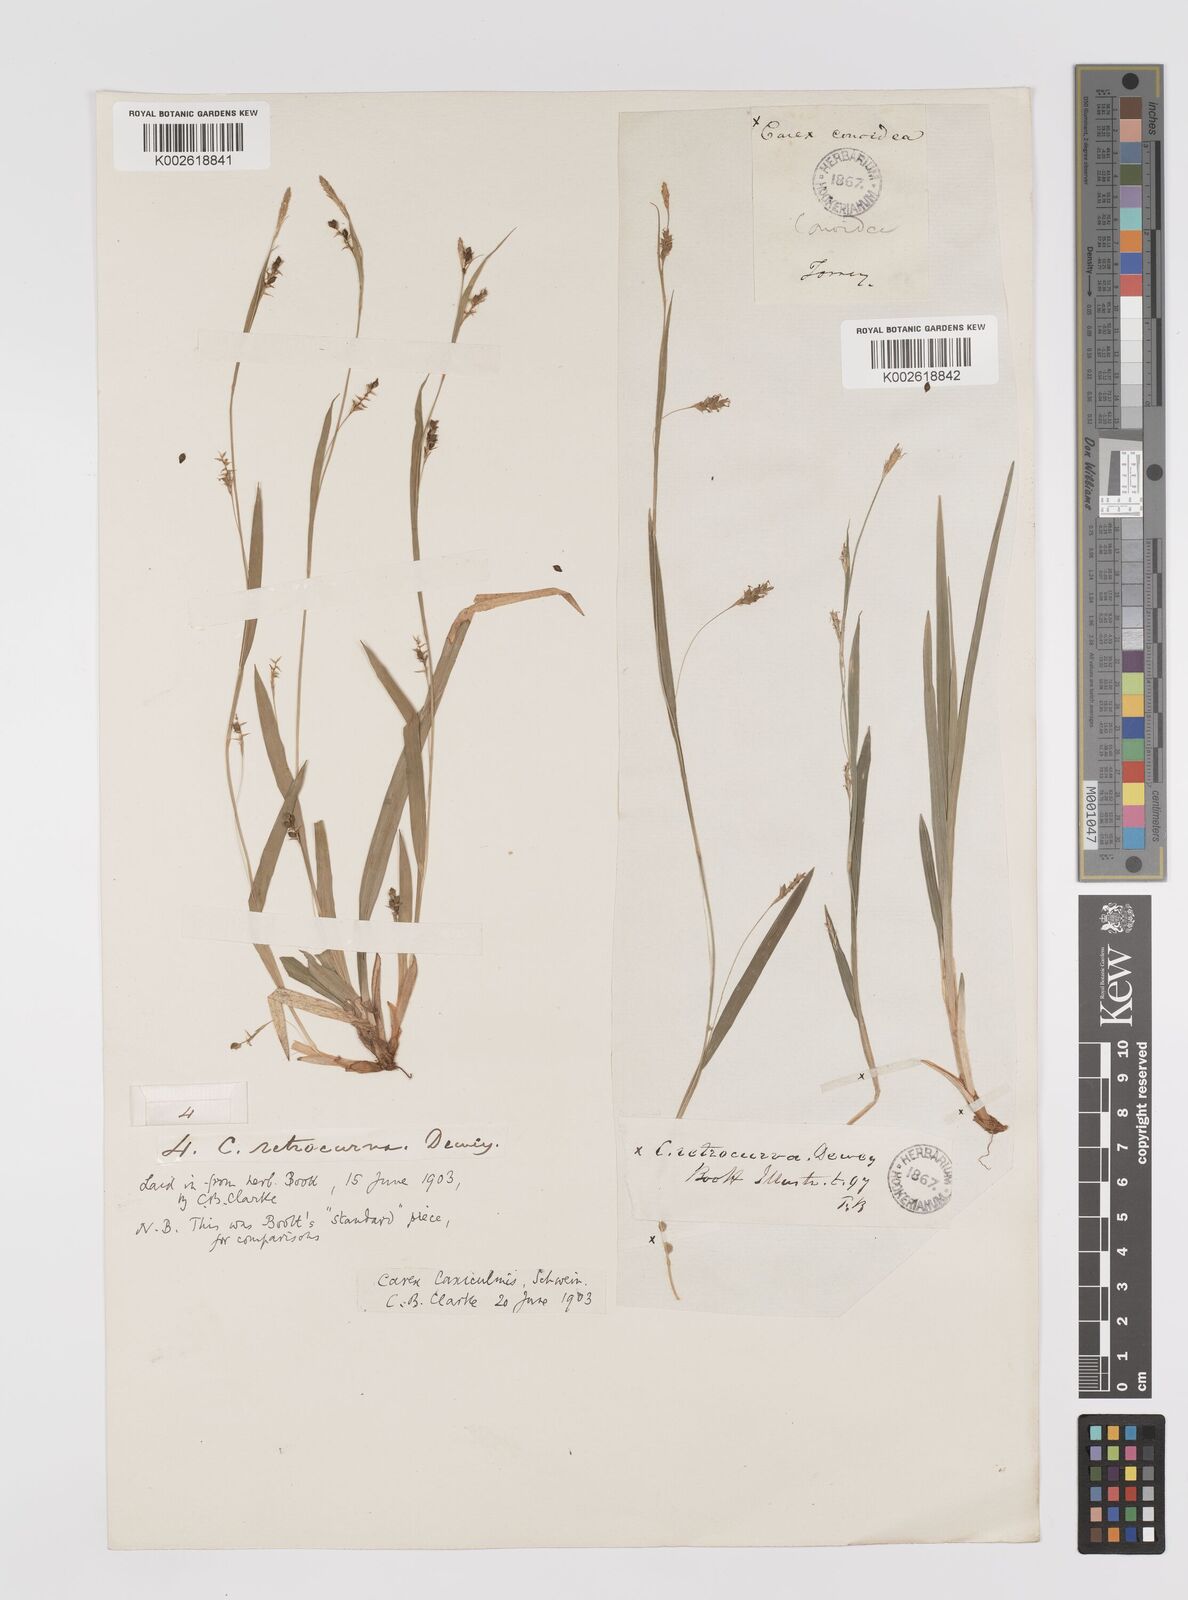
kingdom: Plantae
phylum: Tracheophyta
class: Liliopsida
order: Poales
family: Cyperaceae
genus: Carex
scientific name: Carex laxiculmis
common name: Spreading sedge
